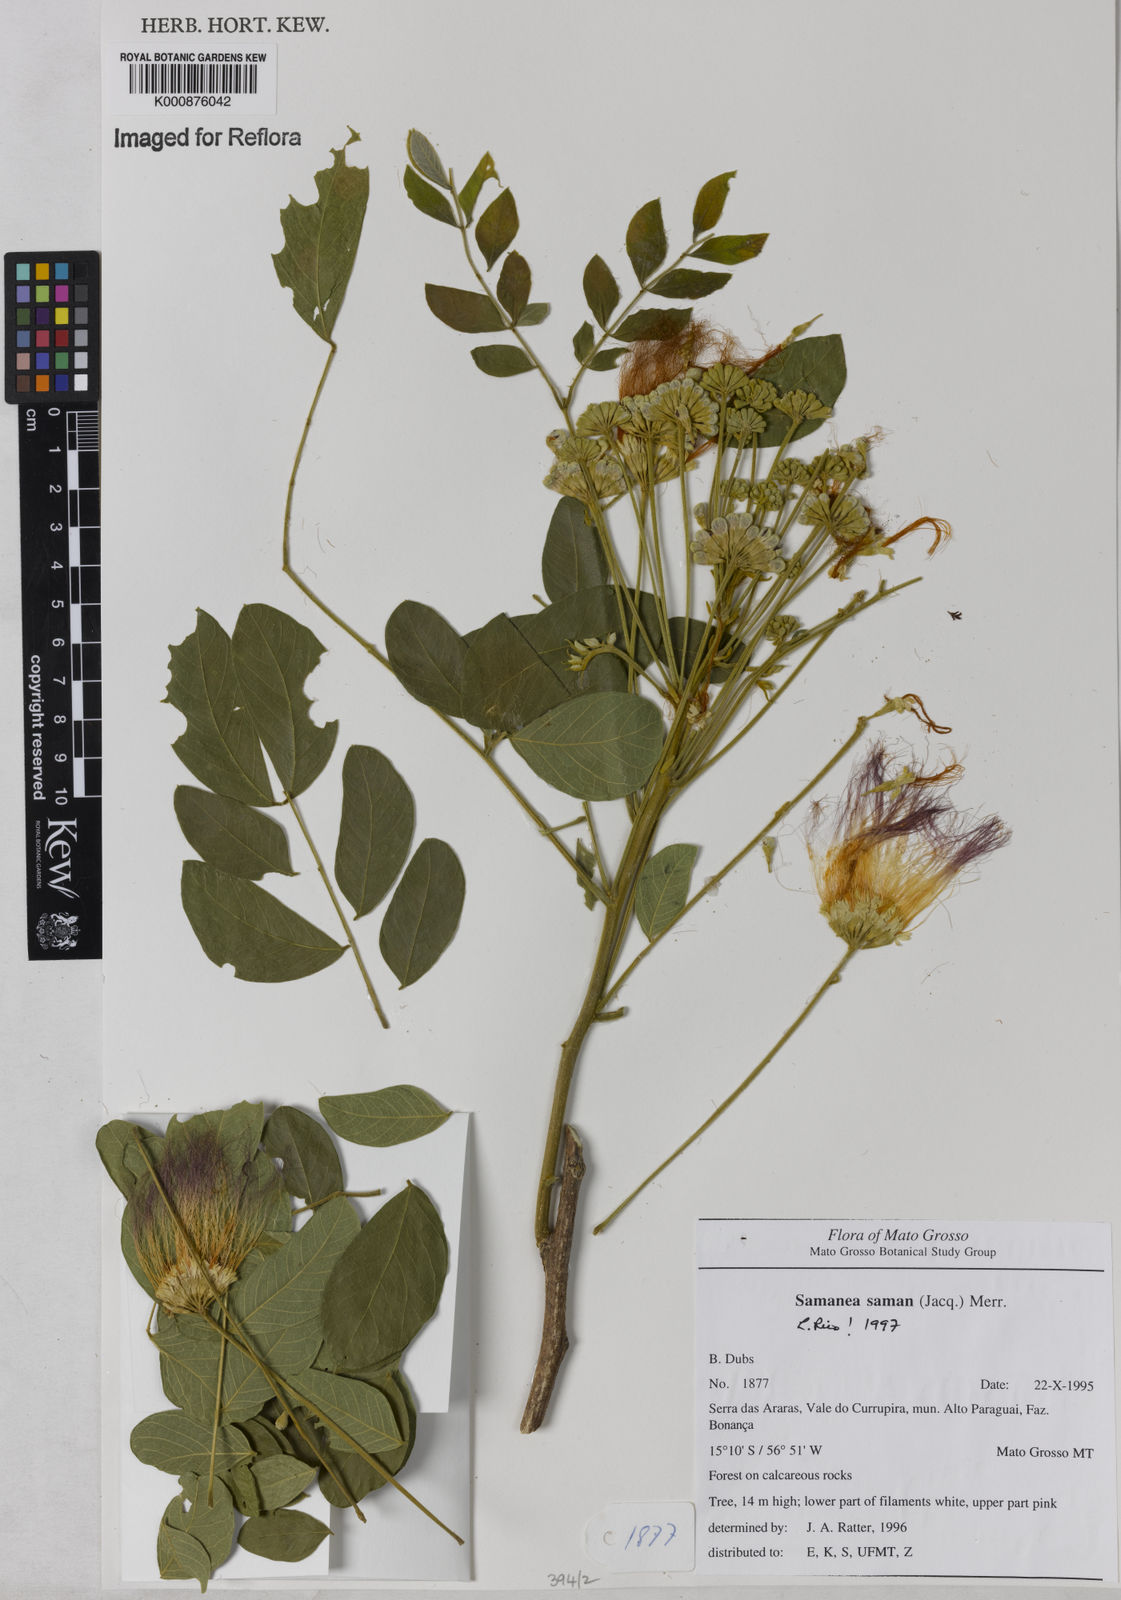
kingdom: Plantae
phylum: Tracheophyta
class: Magnoliopsida
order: Fabales
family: Fabaceae
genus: Samanea
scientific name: Samanea saman
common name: Raintree
